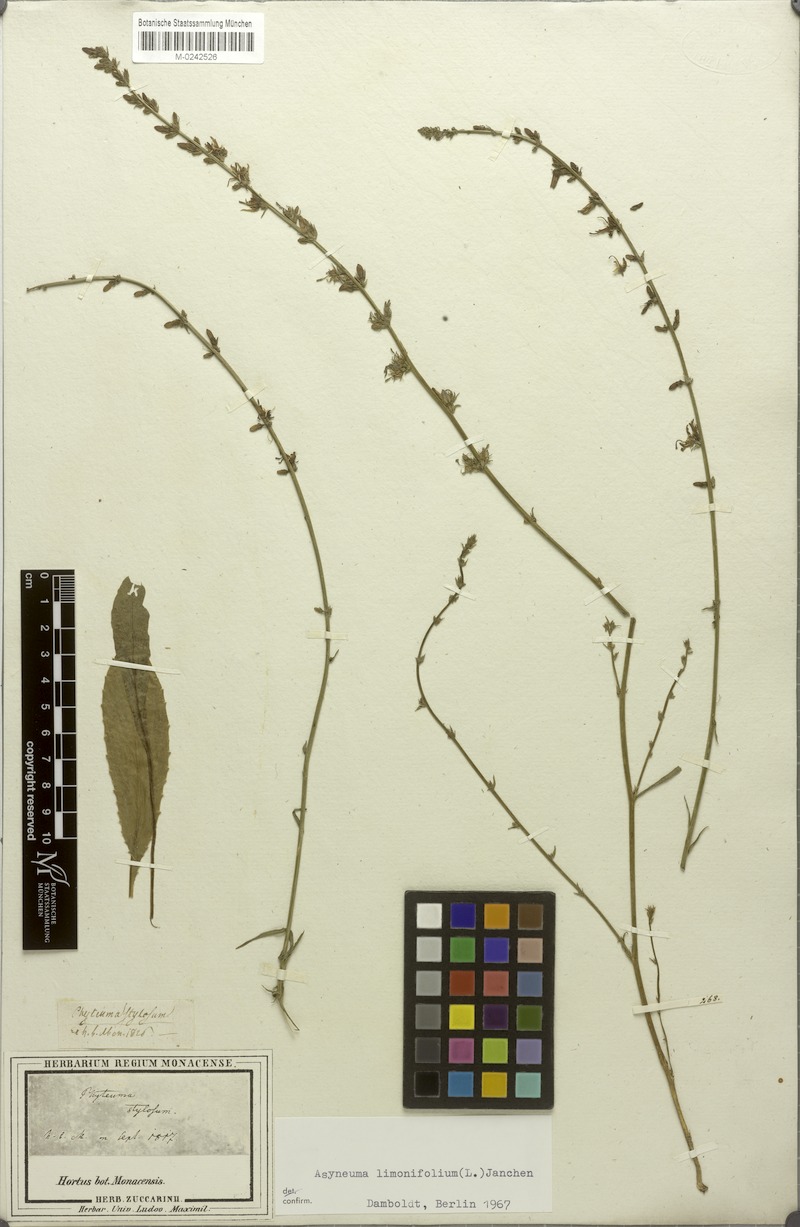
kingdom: Plantae
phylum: Tracheophyta
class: Magnoliopsida
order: Asterales
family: Campanulaceae
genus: Asyneuma
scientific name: Asyneuma limonifolium
